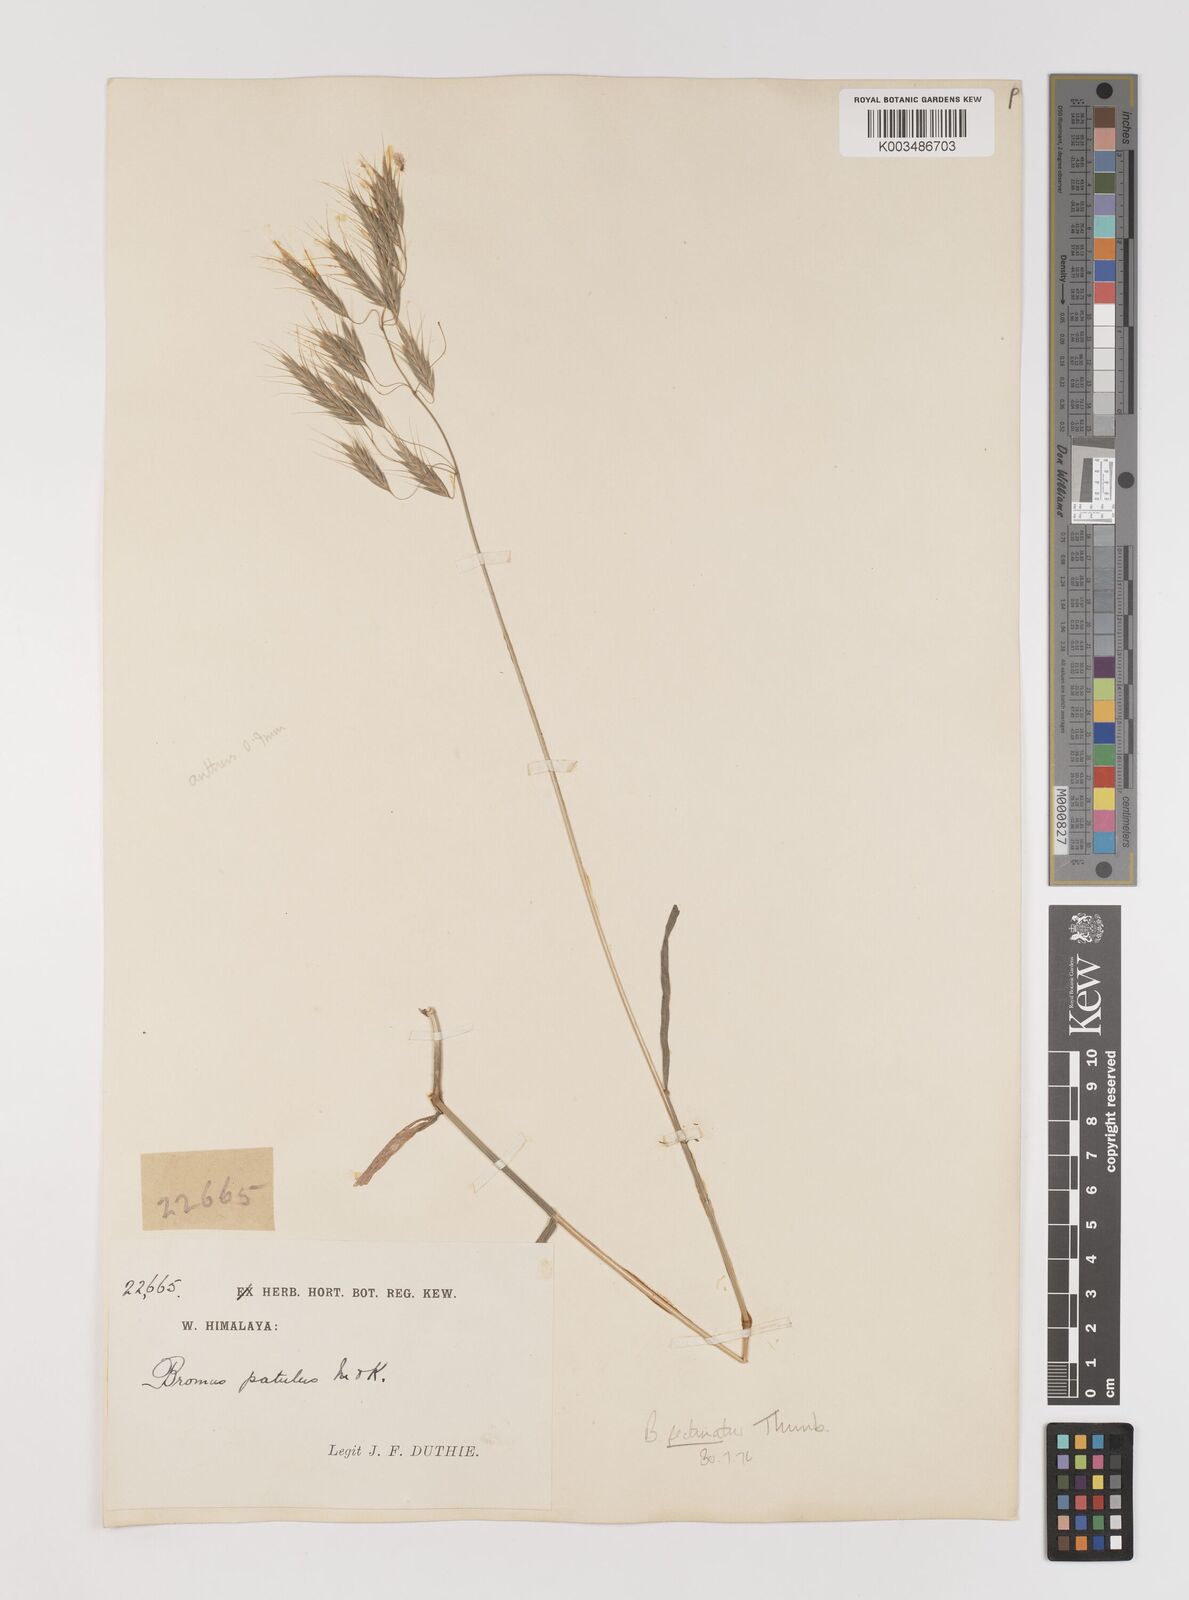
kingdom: Plantae
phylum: Tracheophyta
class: Liliopsida
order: Poales
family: Poaceae
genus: Bromus
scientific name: Bromus pectinatus
